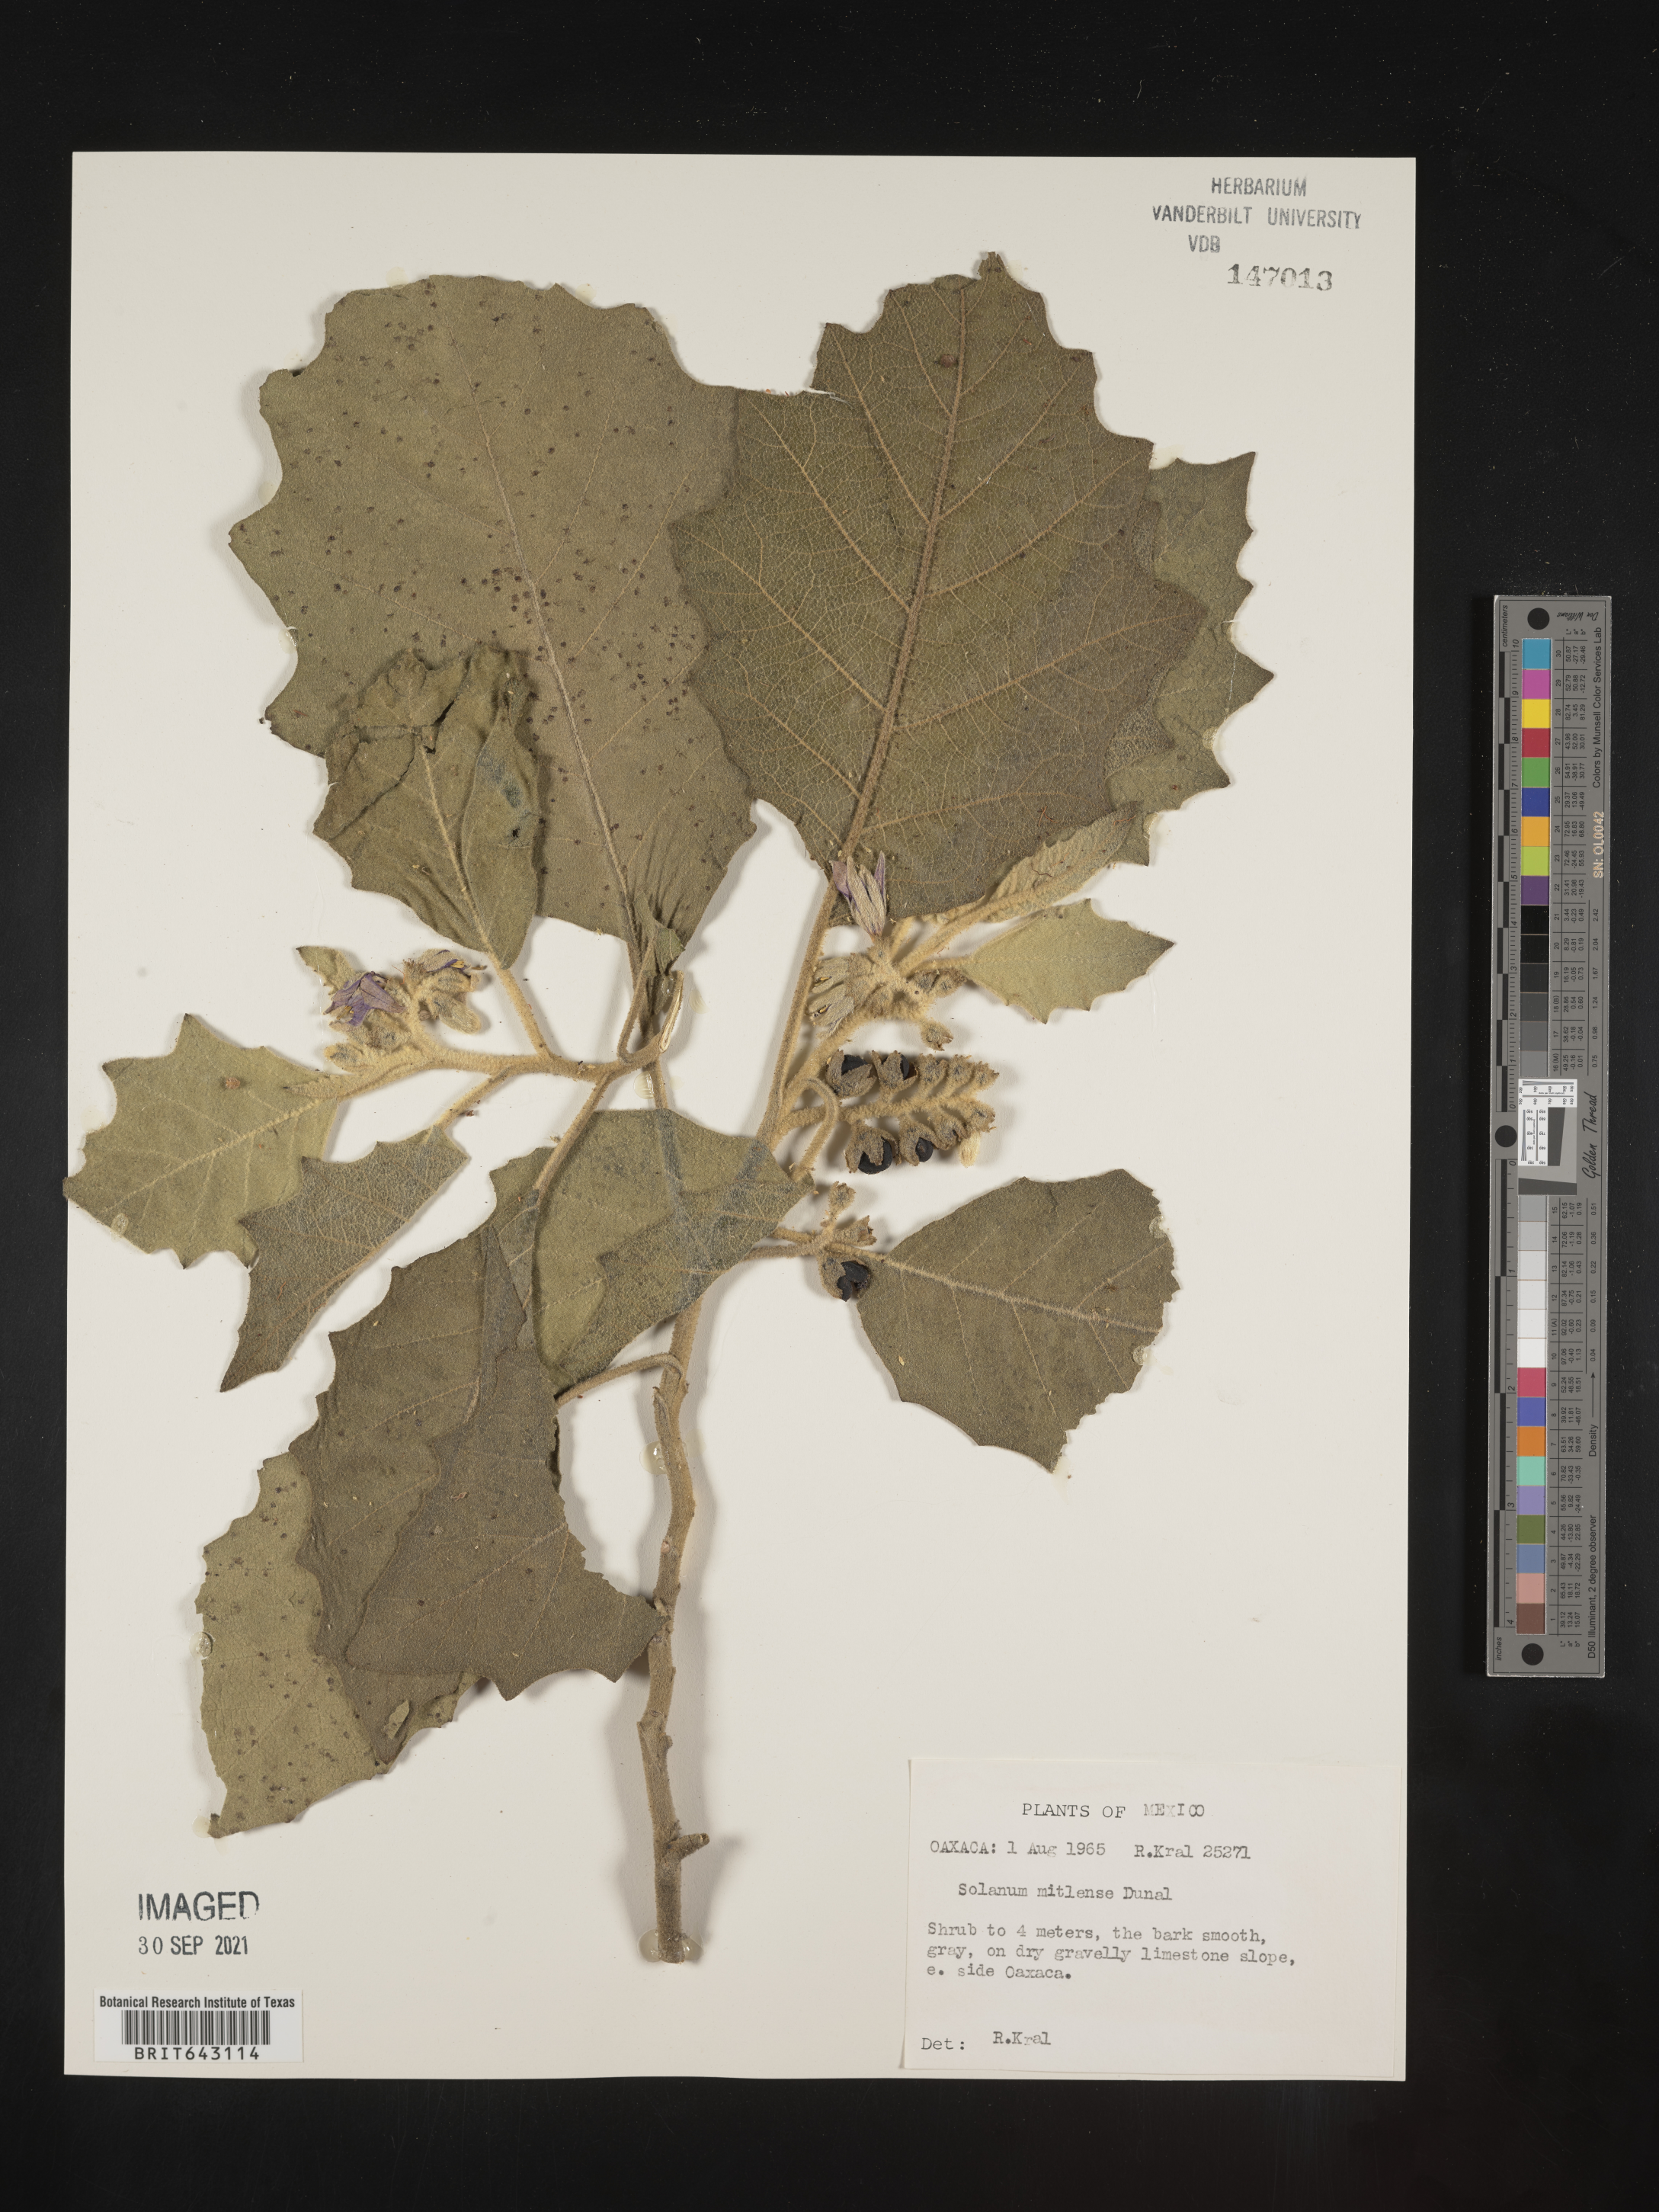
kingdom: Plantae
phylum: Tracheophyta
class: Magnoliopsida
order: Solanales
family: Solanaceae
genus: Solanum
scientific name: Solanum
